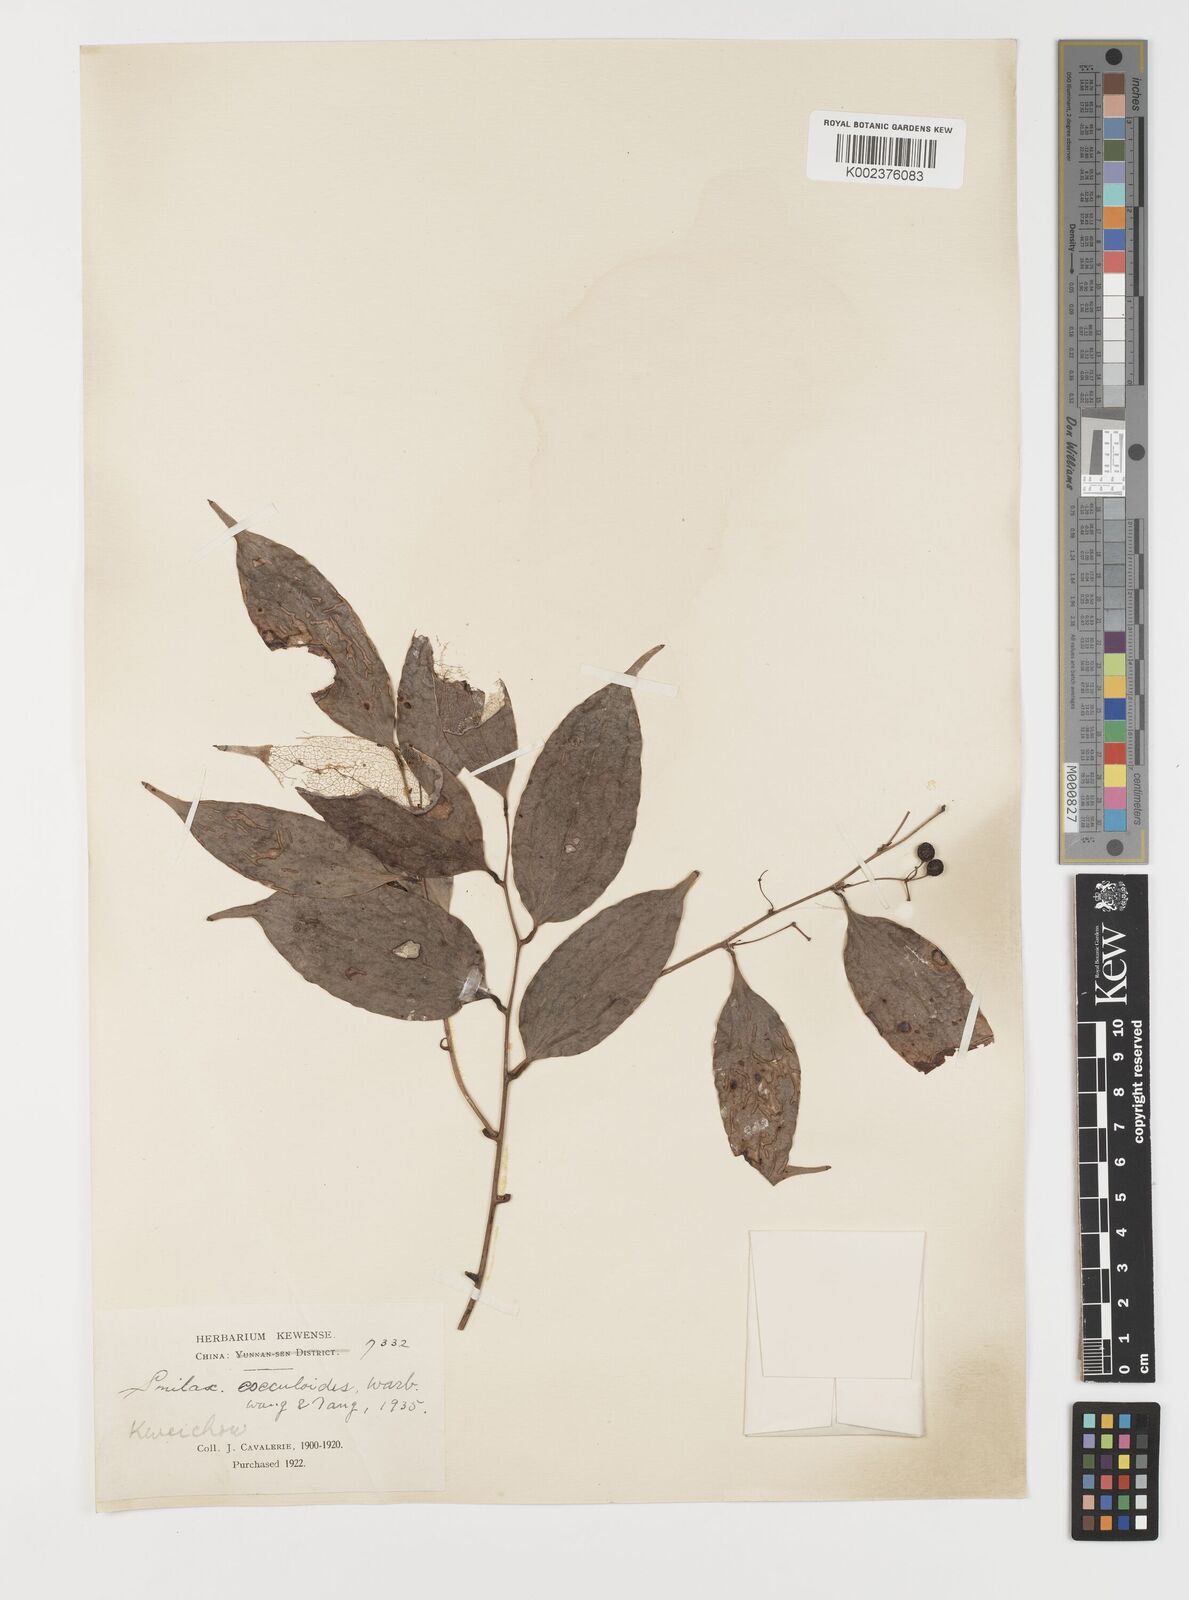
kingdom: Plantae
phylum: Tracheophyta
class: Liliopsida
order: Liliales
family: Smilacaceae
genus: Smilax
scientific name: Smilax cocculoides
